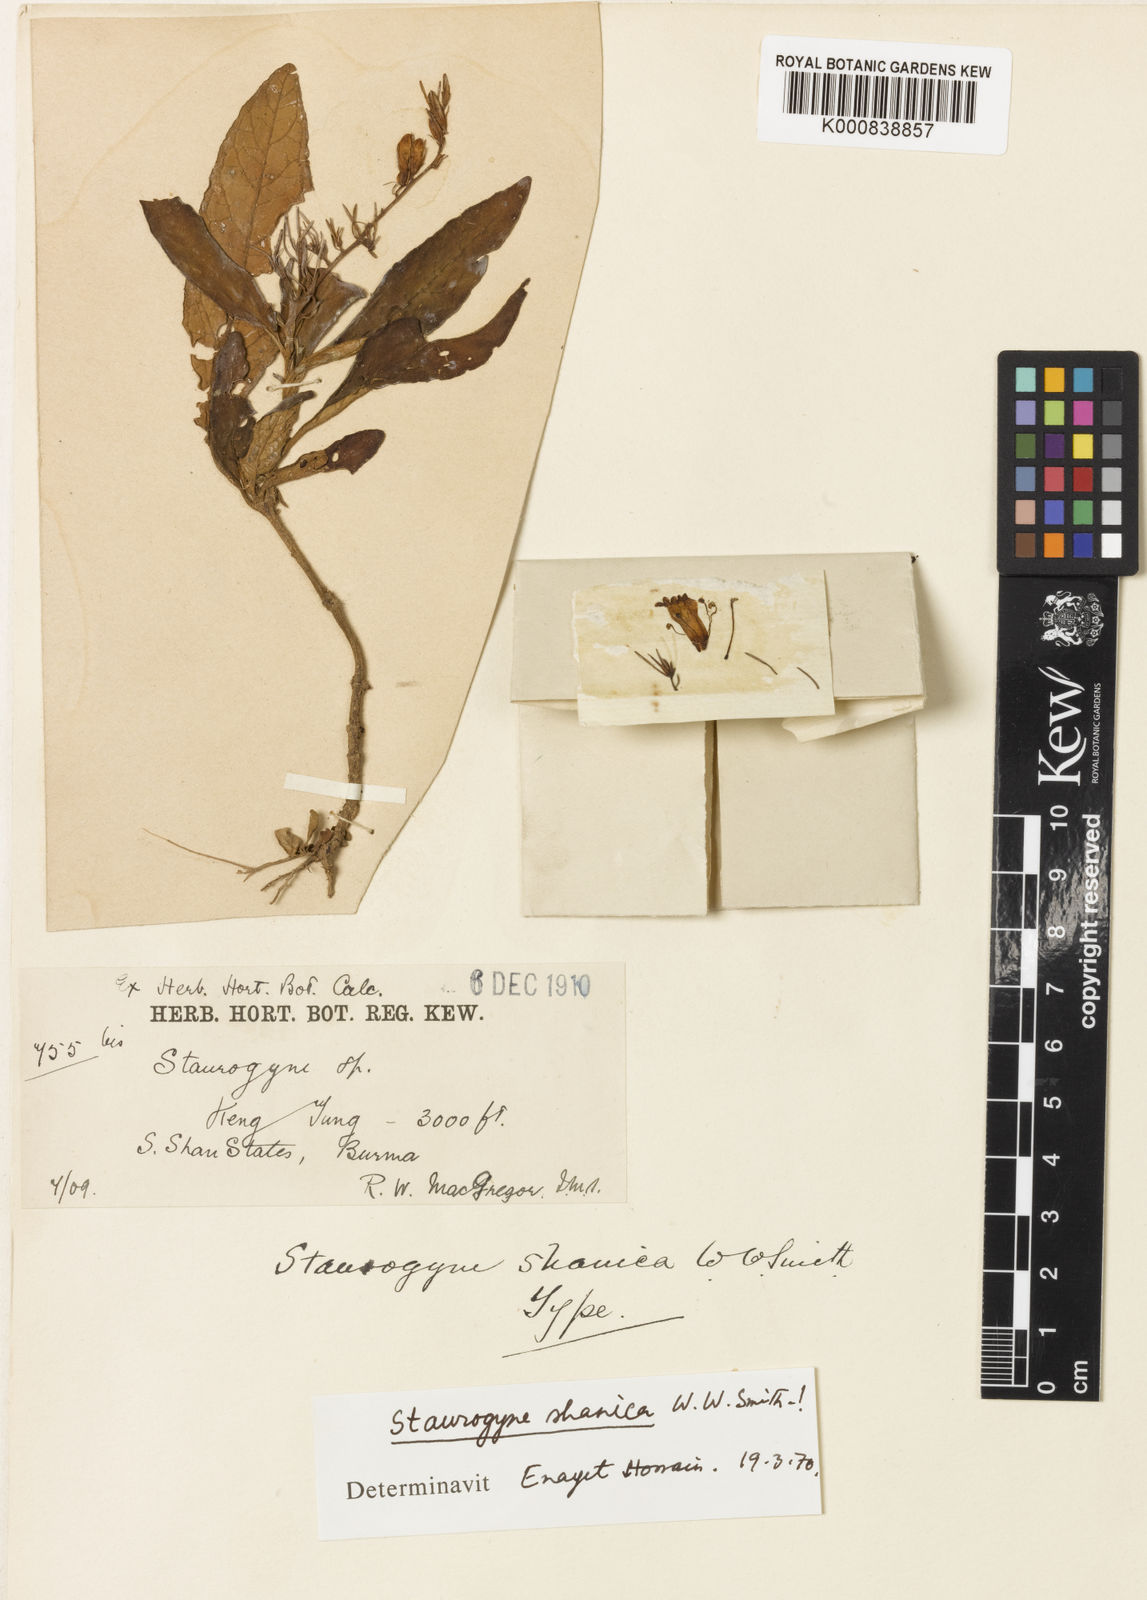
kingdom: Plantae
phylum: Tracheophyta
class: Magnoliopsida
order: Lamiales
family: Acanthaceae
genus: Staurogyne
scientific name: Staurogyne shanica
